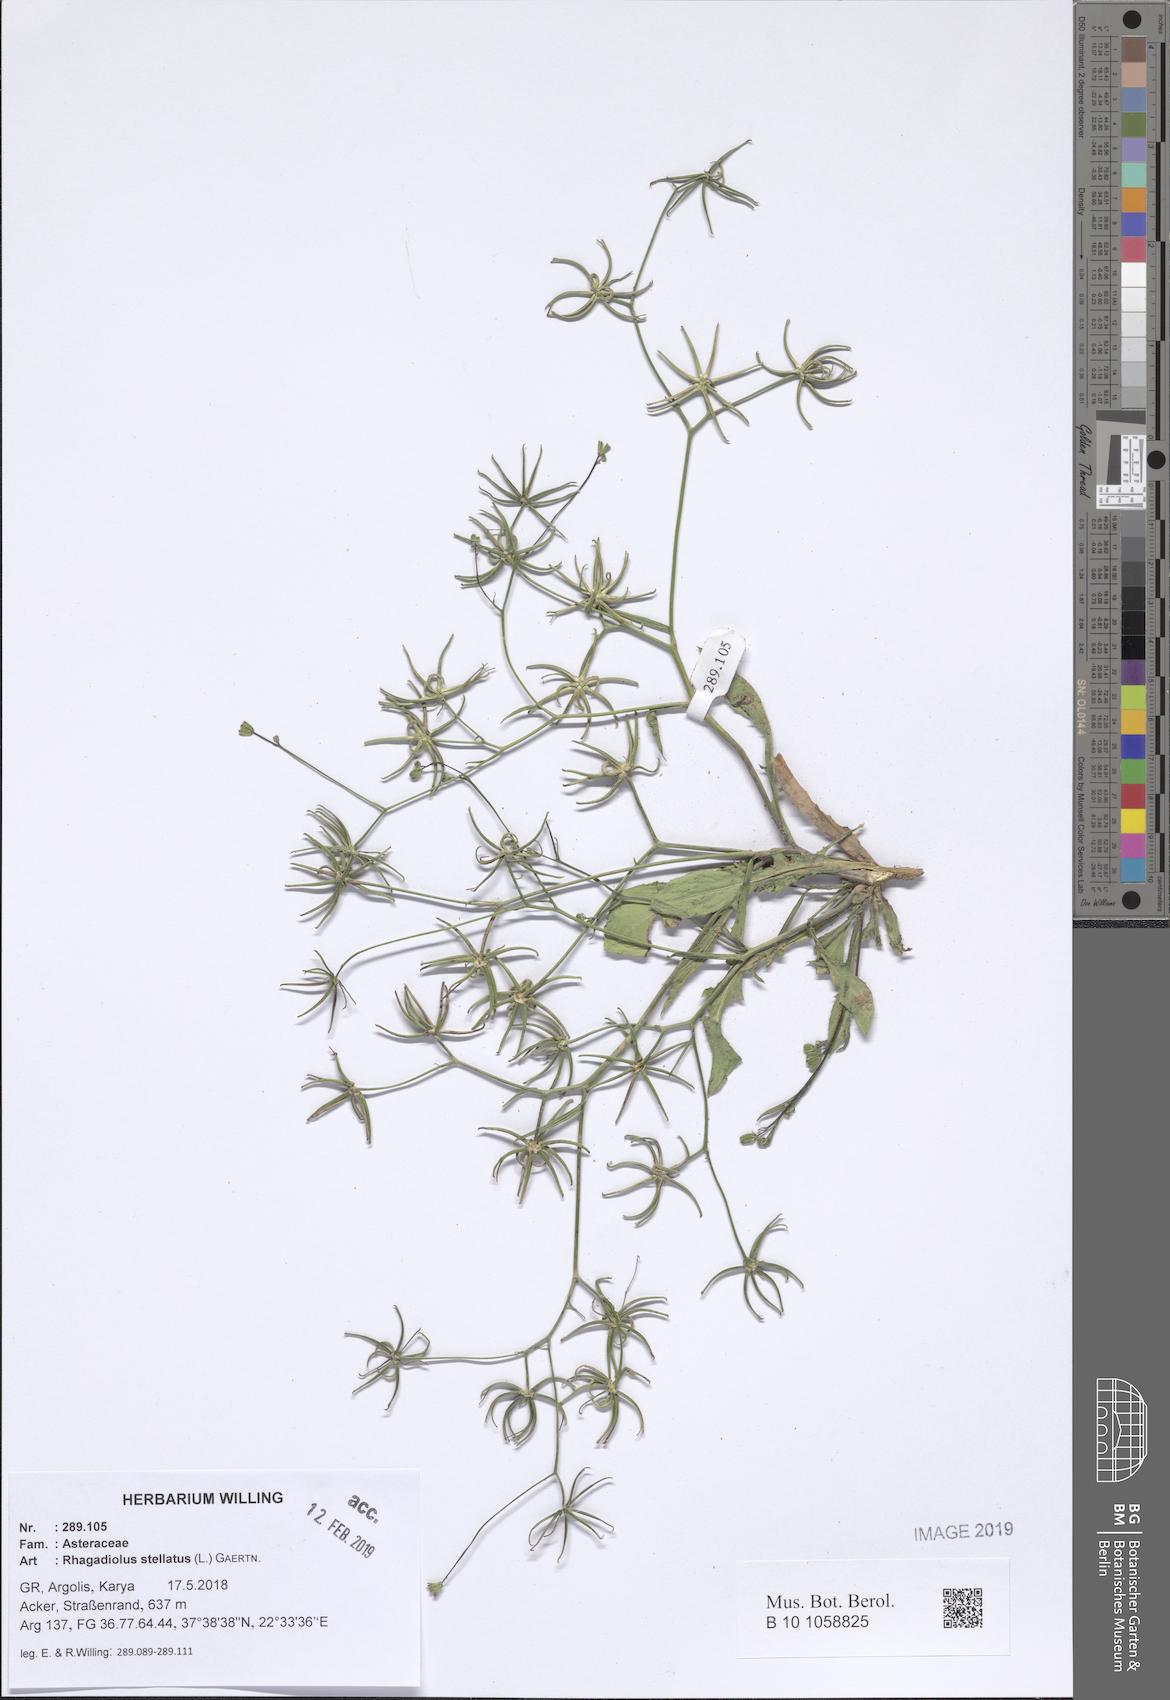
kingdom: Plantae
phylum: Tracheophyta
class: Magnoliopsida
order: Asterales
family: Asteraceae
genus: Rhagadiolus
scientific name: Rhagadiolus stellatus
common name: Star hawkbit
